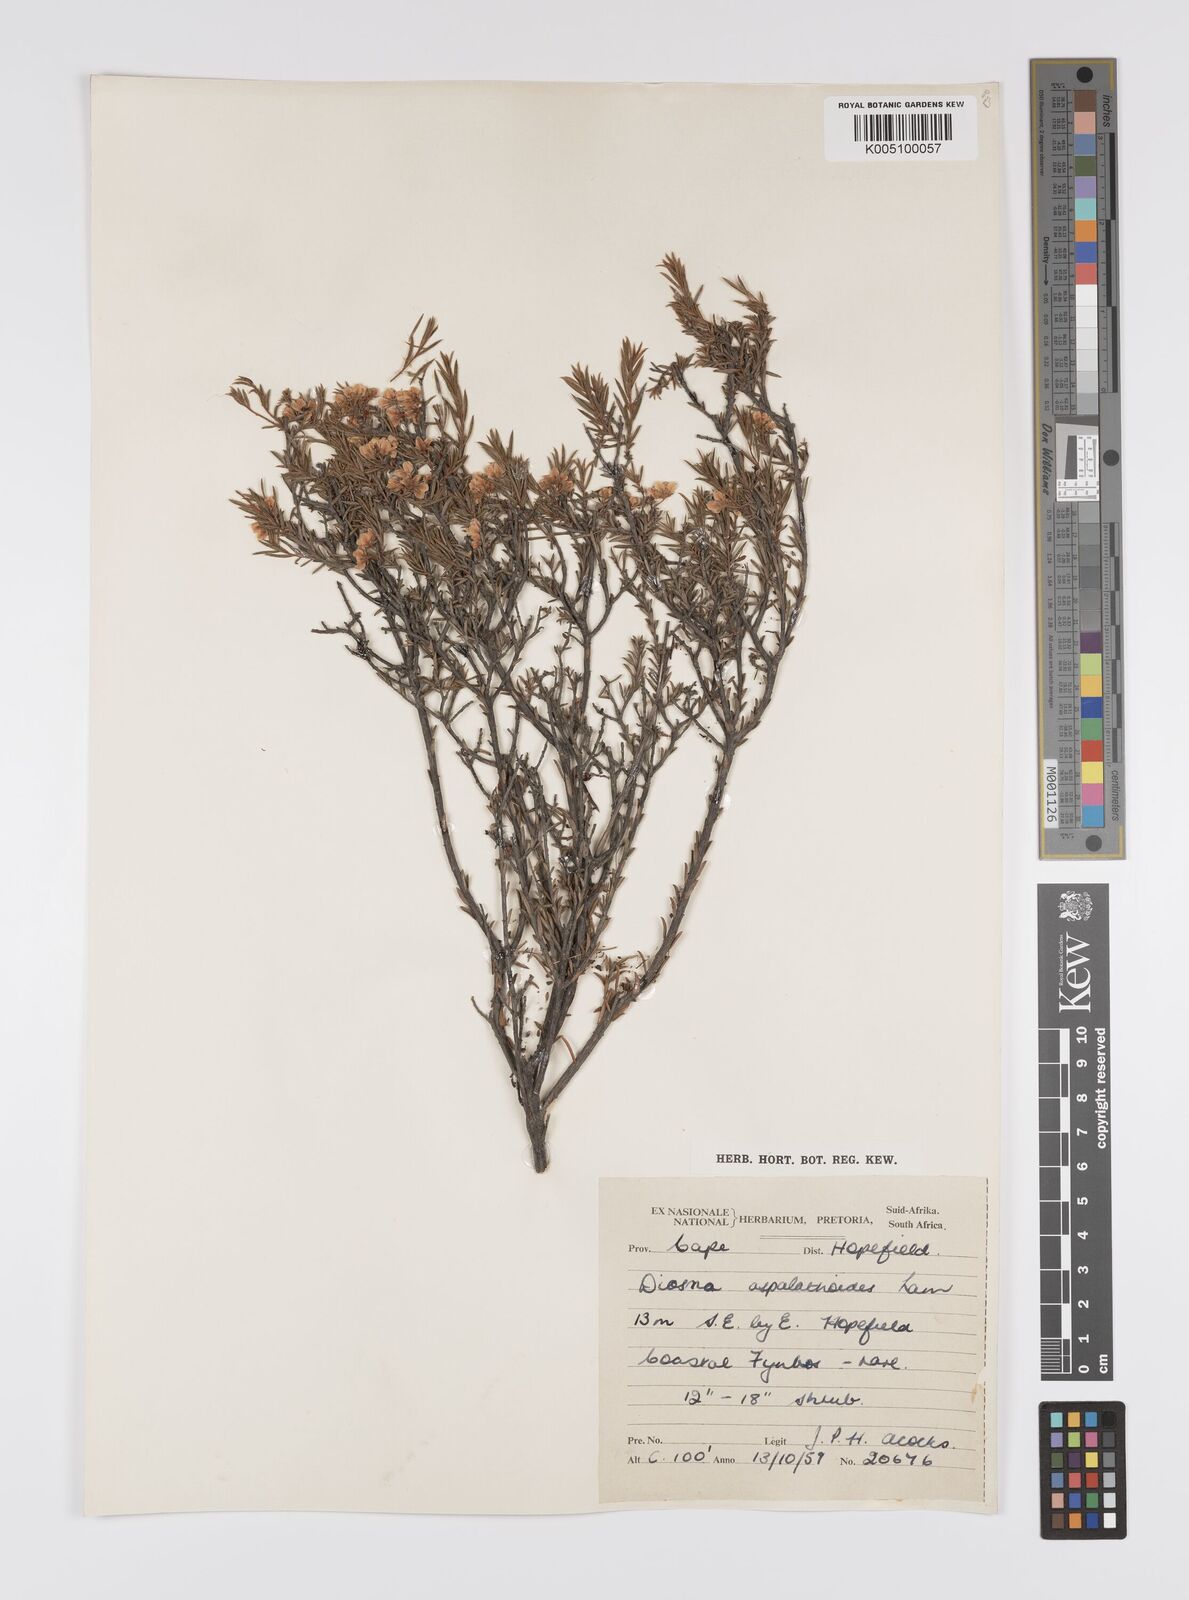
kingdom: Plantae
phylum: Tracheophyta
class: Magnoliopsida
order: Sapindales
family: Rutaceae
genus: Diosma
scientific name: Diosma aspalathoides
